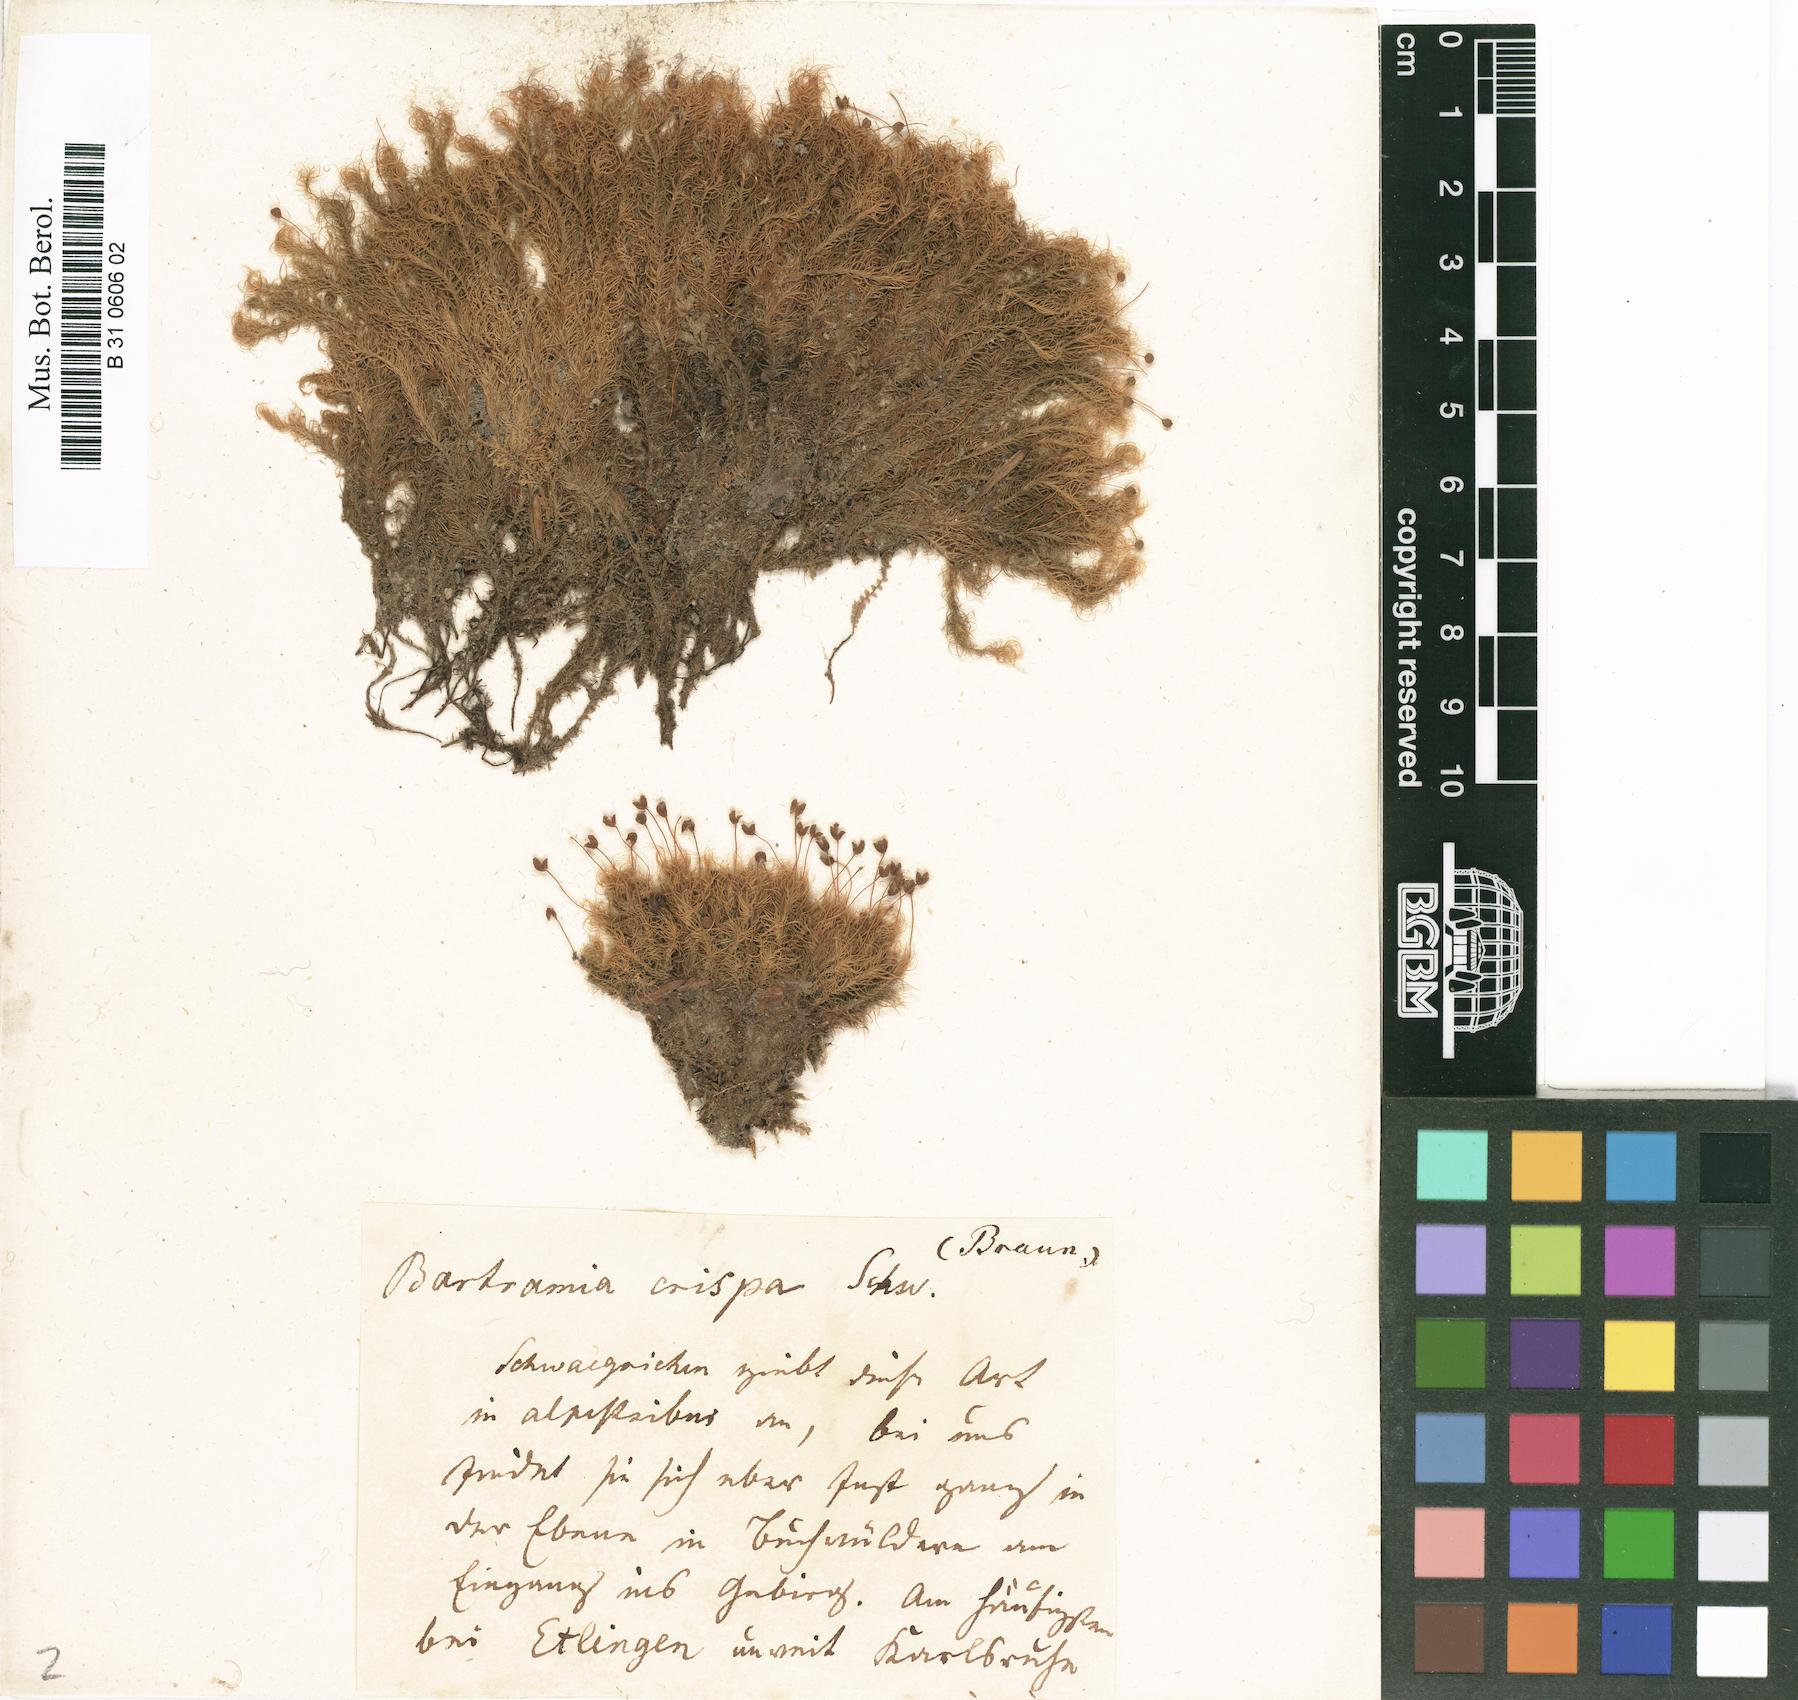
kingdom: Plantae
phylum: Bryophyta
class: Bryopsida
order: Bartramiales
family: Bartramiaceae
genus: Bartramia
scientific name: Bartramia pomiformis
